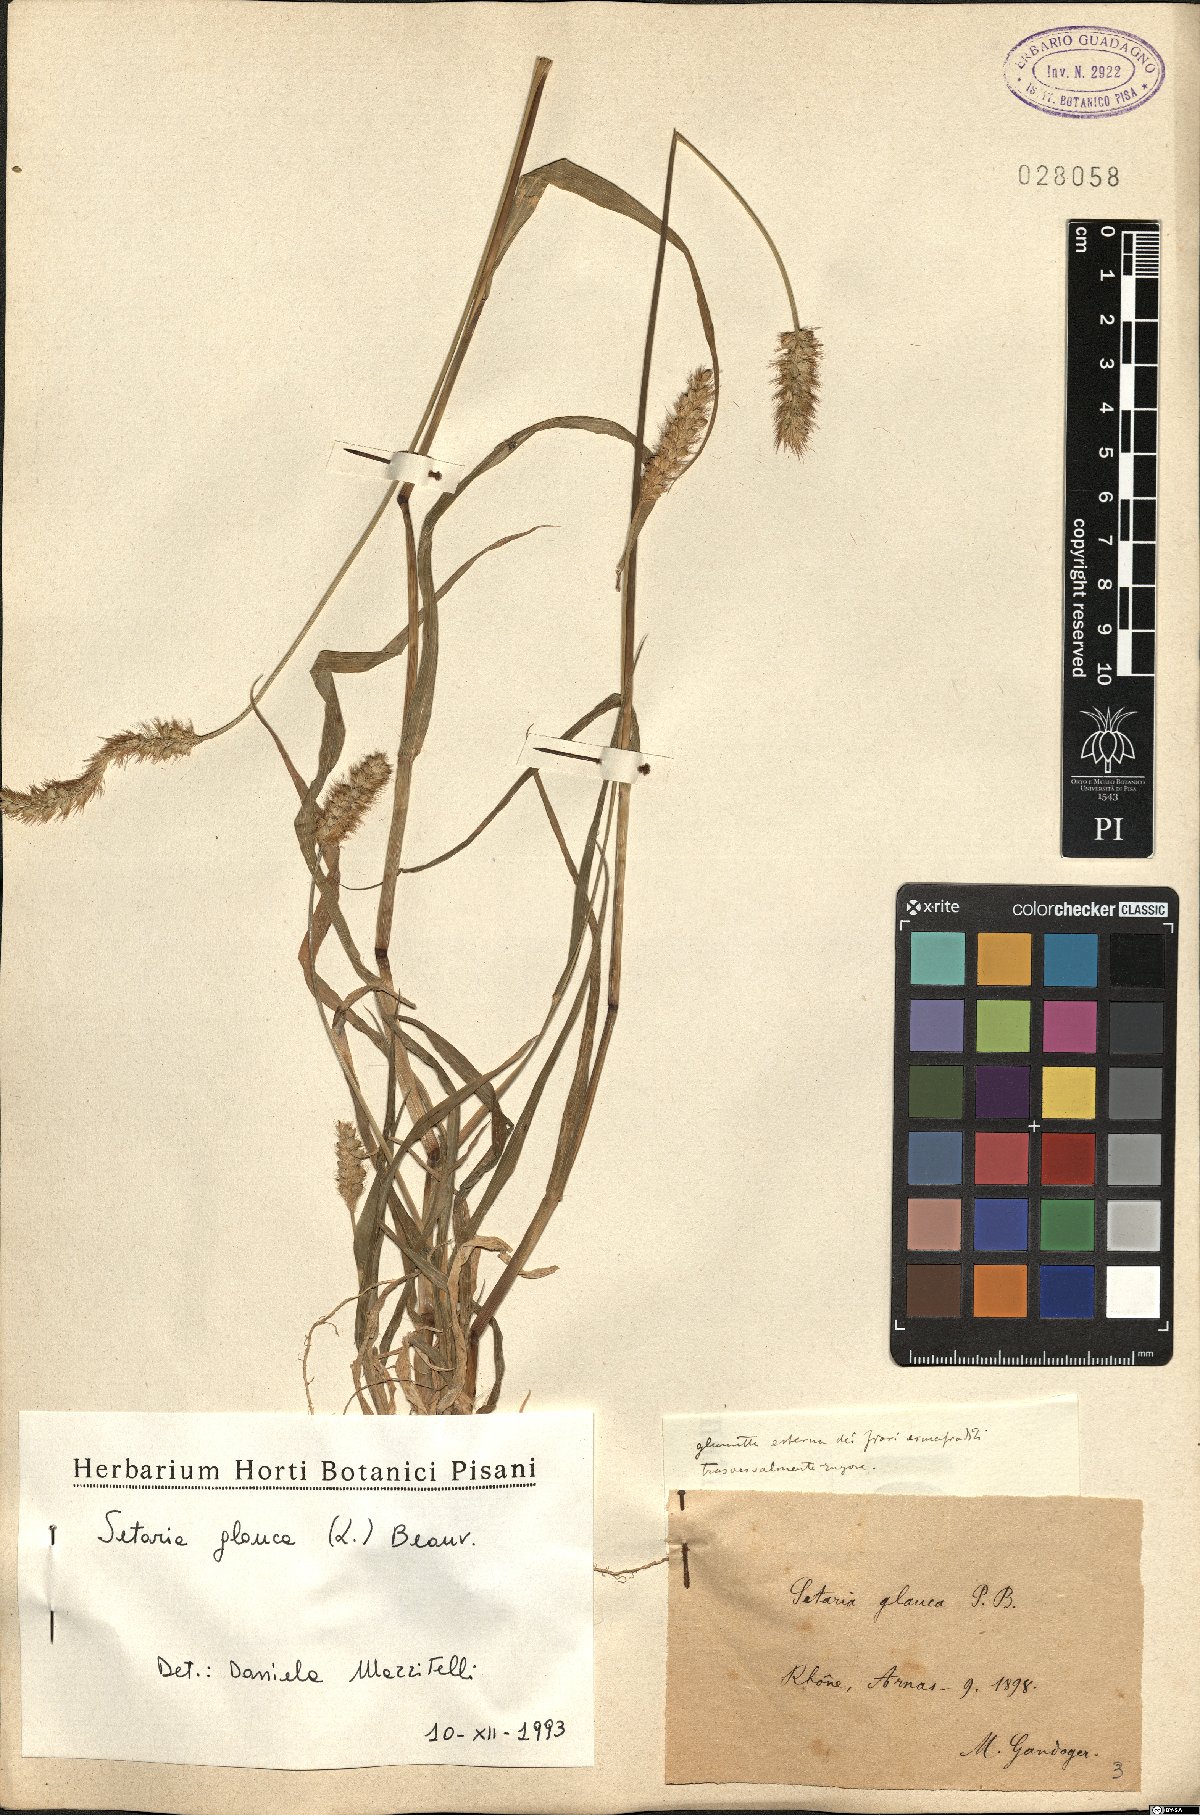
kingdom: Plantae
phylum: Tracheophyta
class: Liliopsida
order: Poales
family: Poaceae
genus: Cenchrus
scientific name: Cenchrus americanus
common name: Pearl millet
